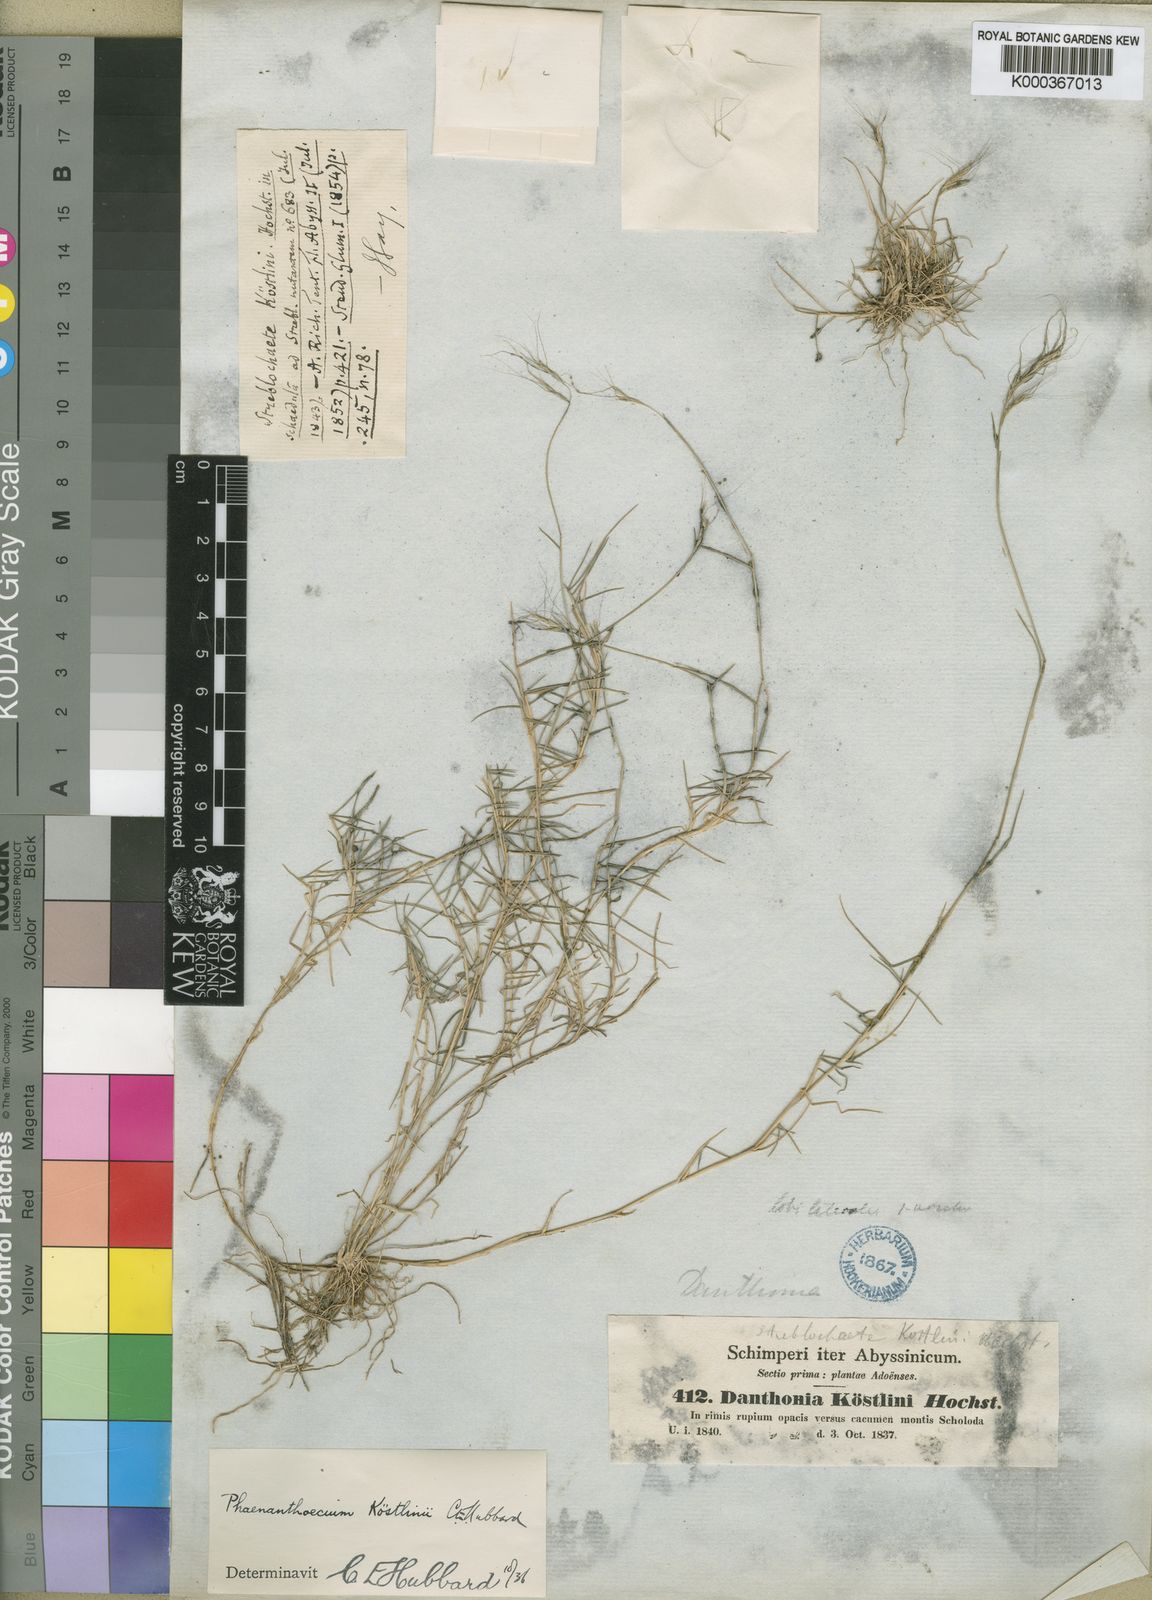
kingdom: Plantae
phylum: Tracheophyta
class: Liliopsida
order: Poales
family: Poaceae
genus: Phaenanthoecium
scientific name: Phaenanthoecium koestlinii
